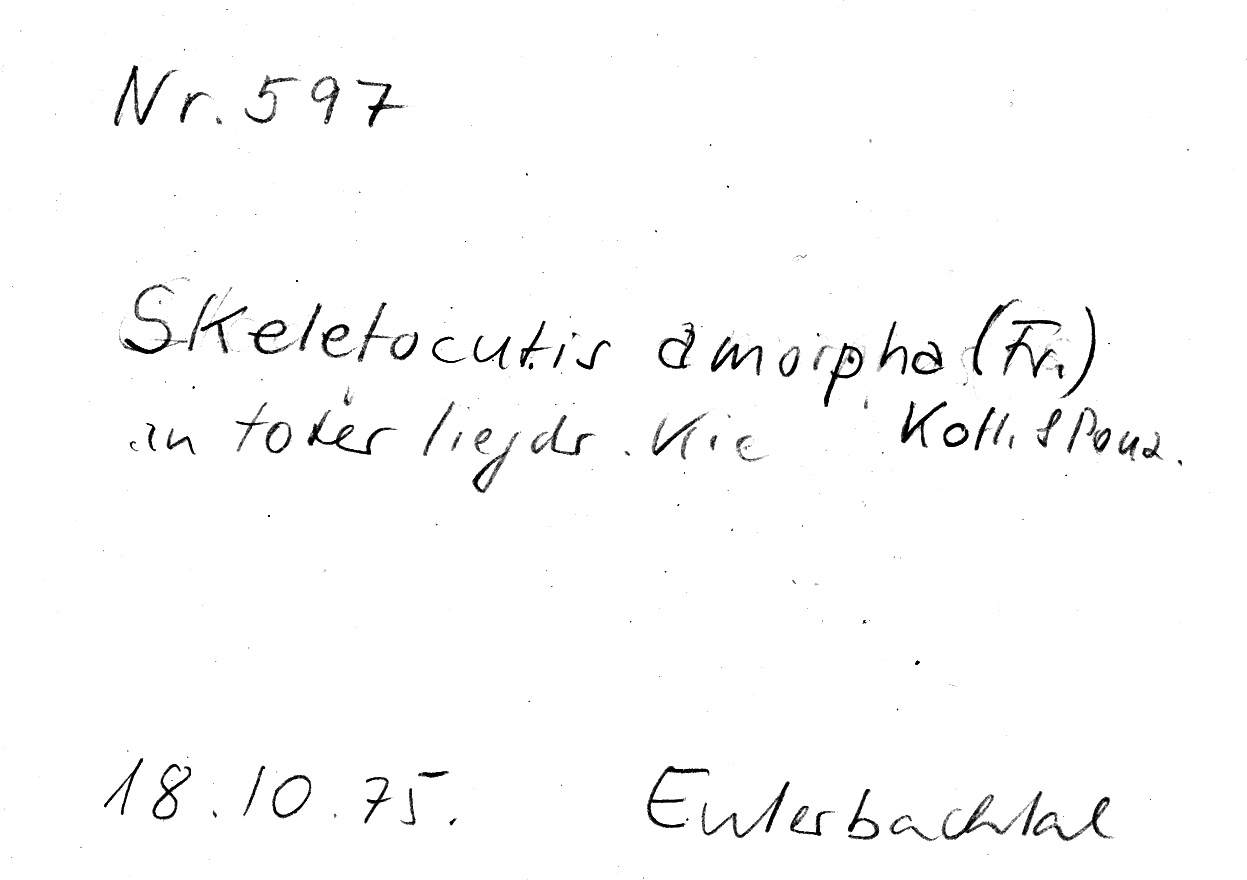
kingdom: Plantae
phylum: Tracheophyta
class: Pinopsida
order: Pinales
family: Pinaceae
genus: Pinus
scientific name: Pinus
